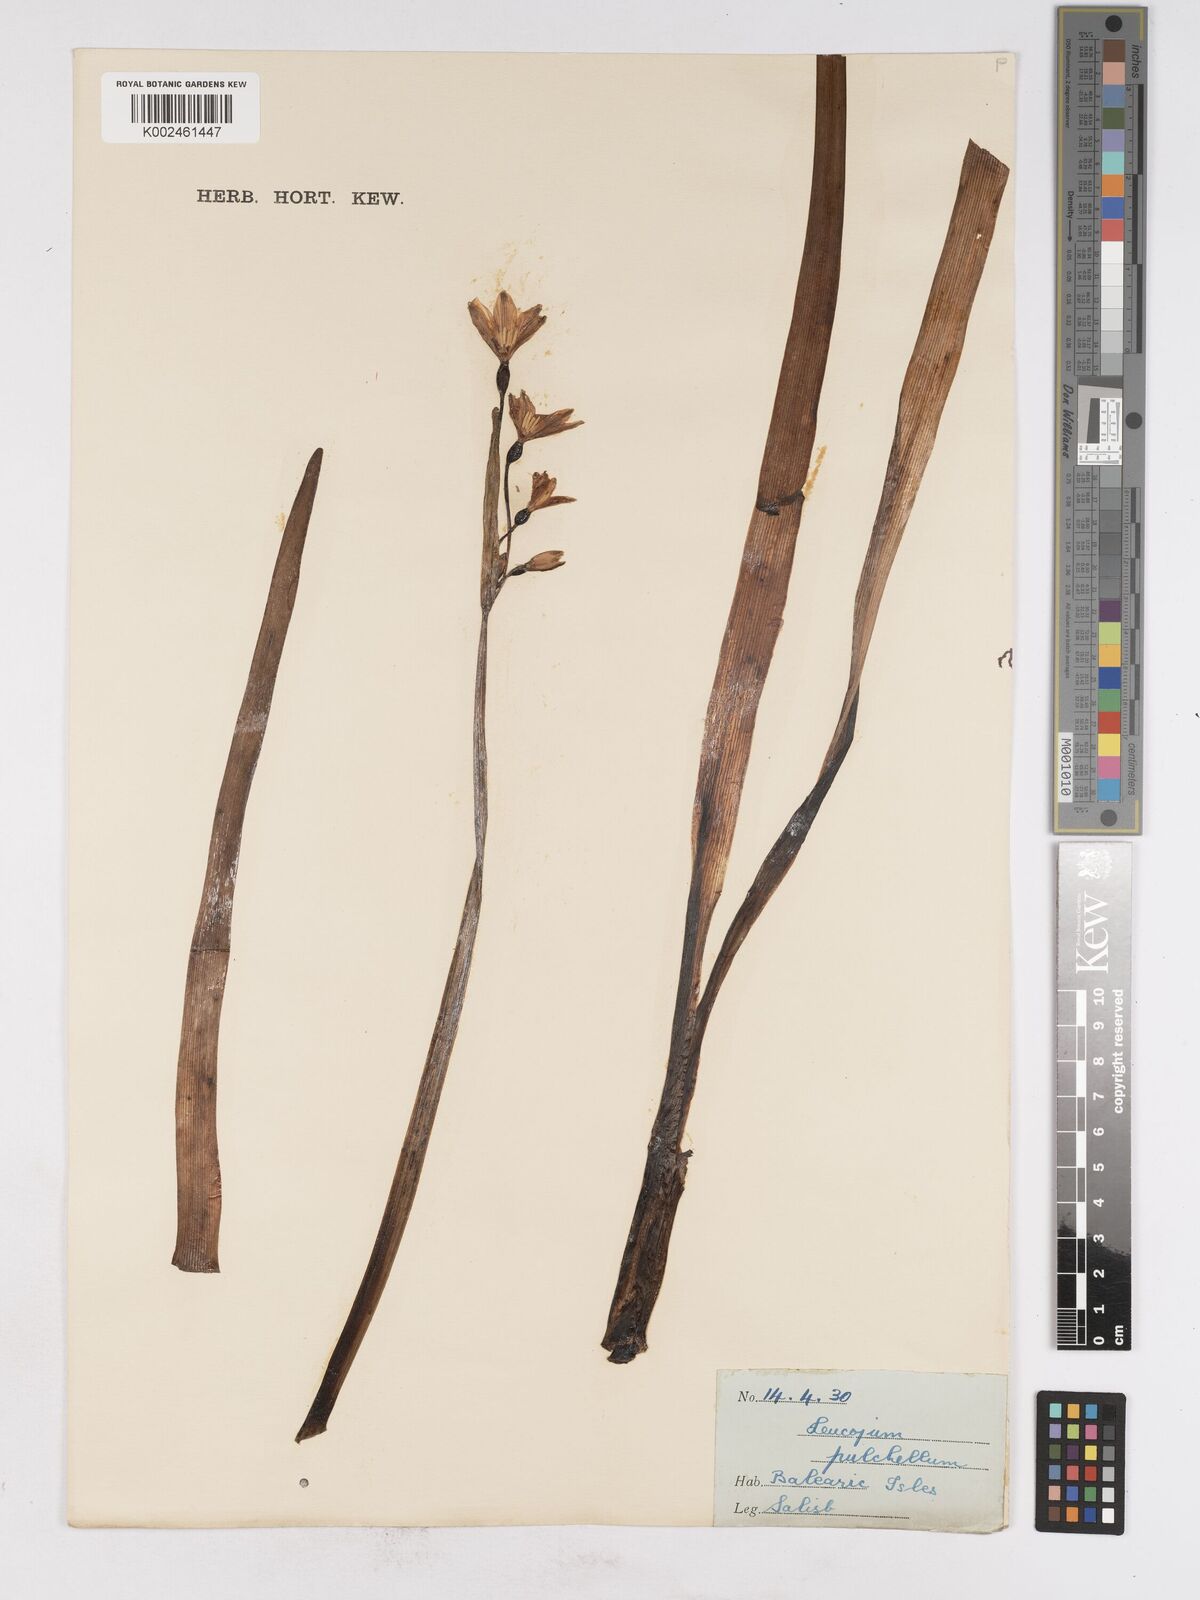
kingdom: Plantae
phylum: Tracheophyta
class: Liliopsida
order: Asparagales
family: Amaryllidaceae
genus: Leucojum
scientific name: Leucojum aestivum
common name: Summer snowflake
